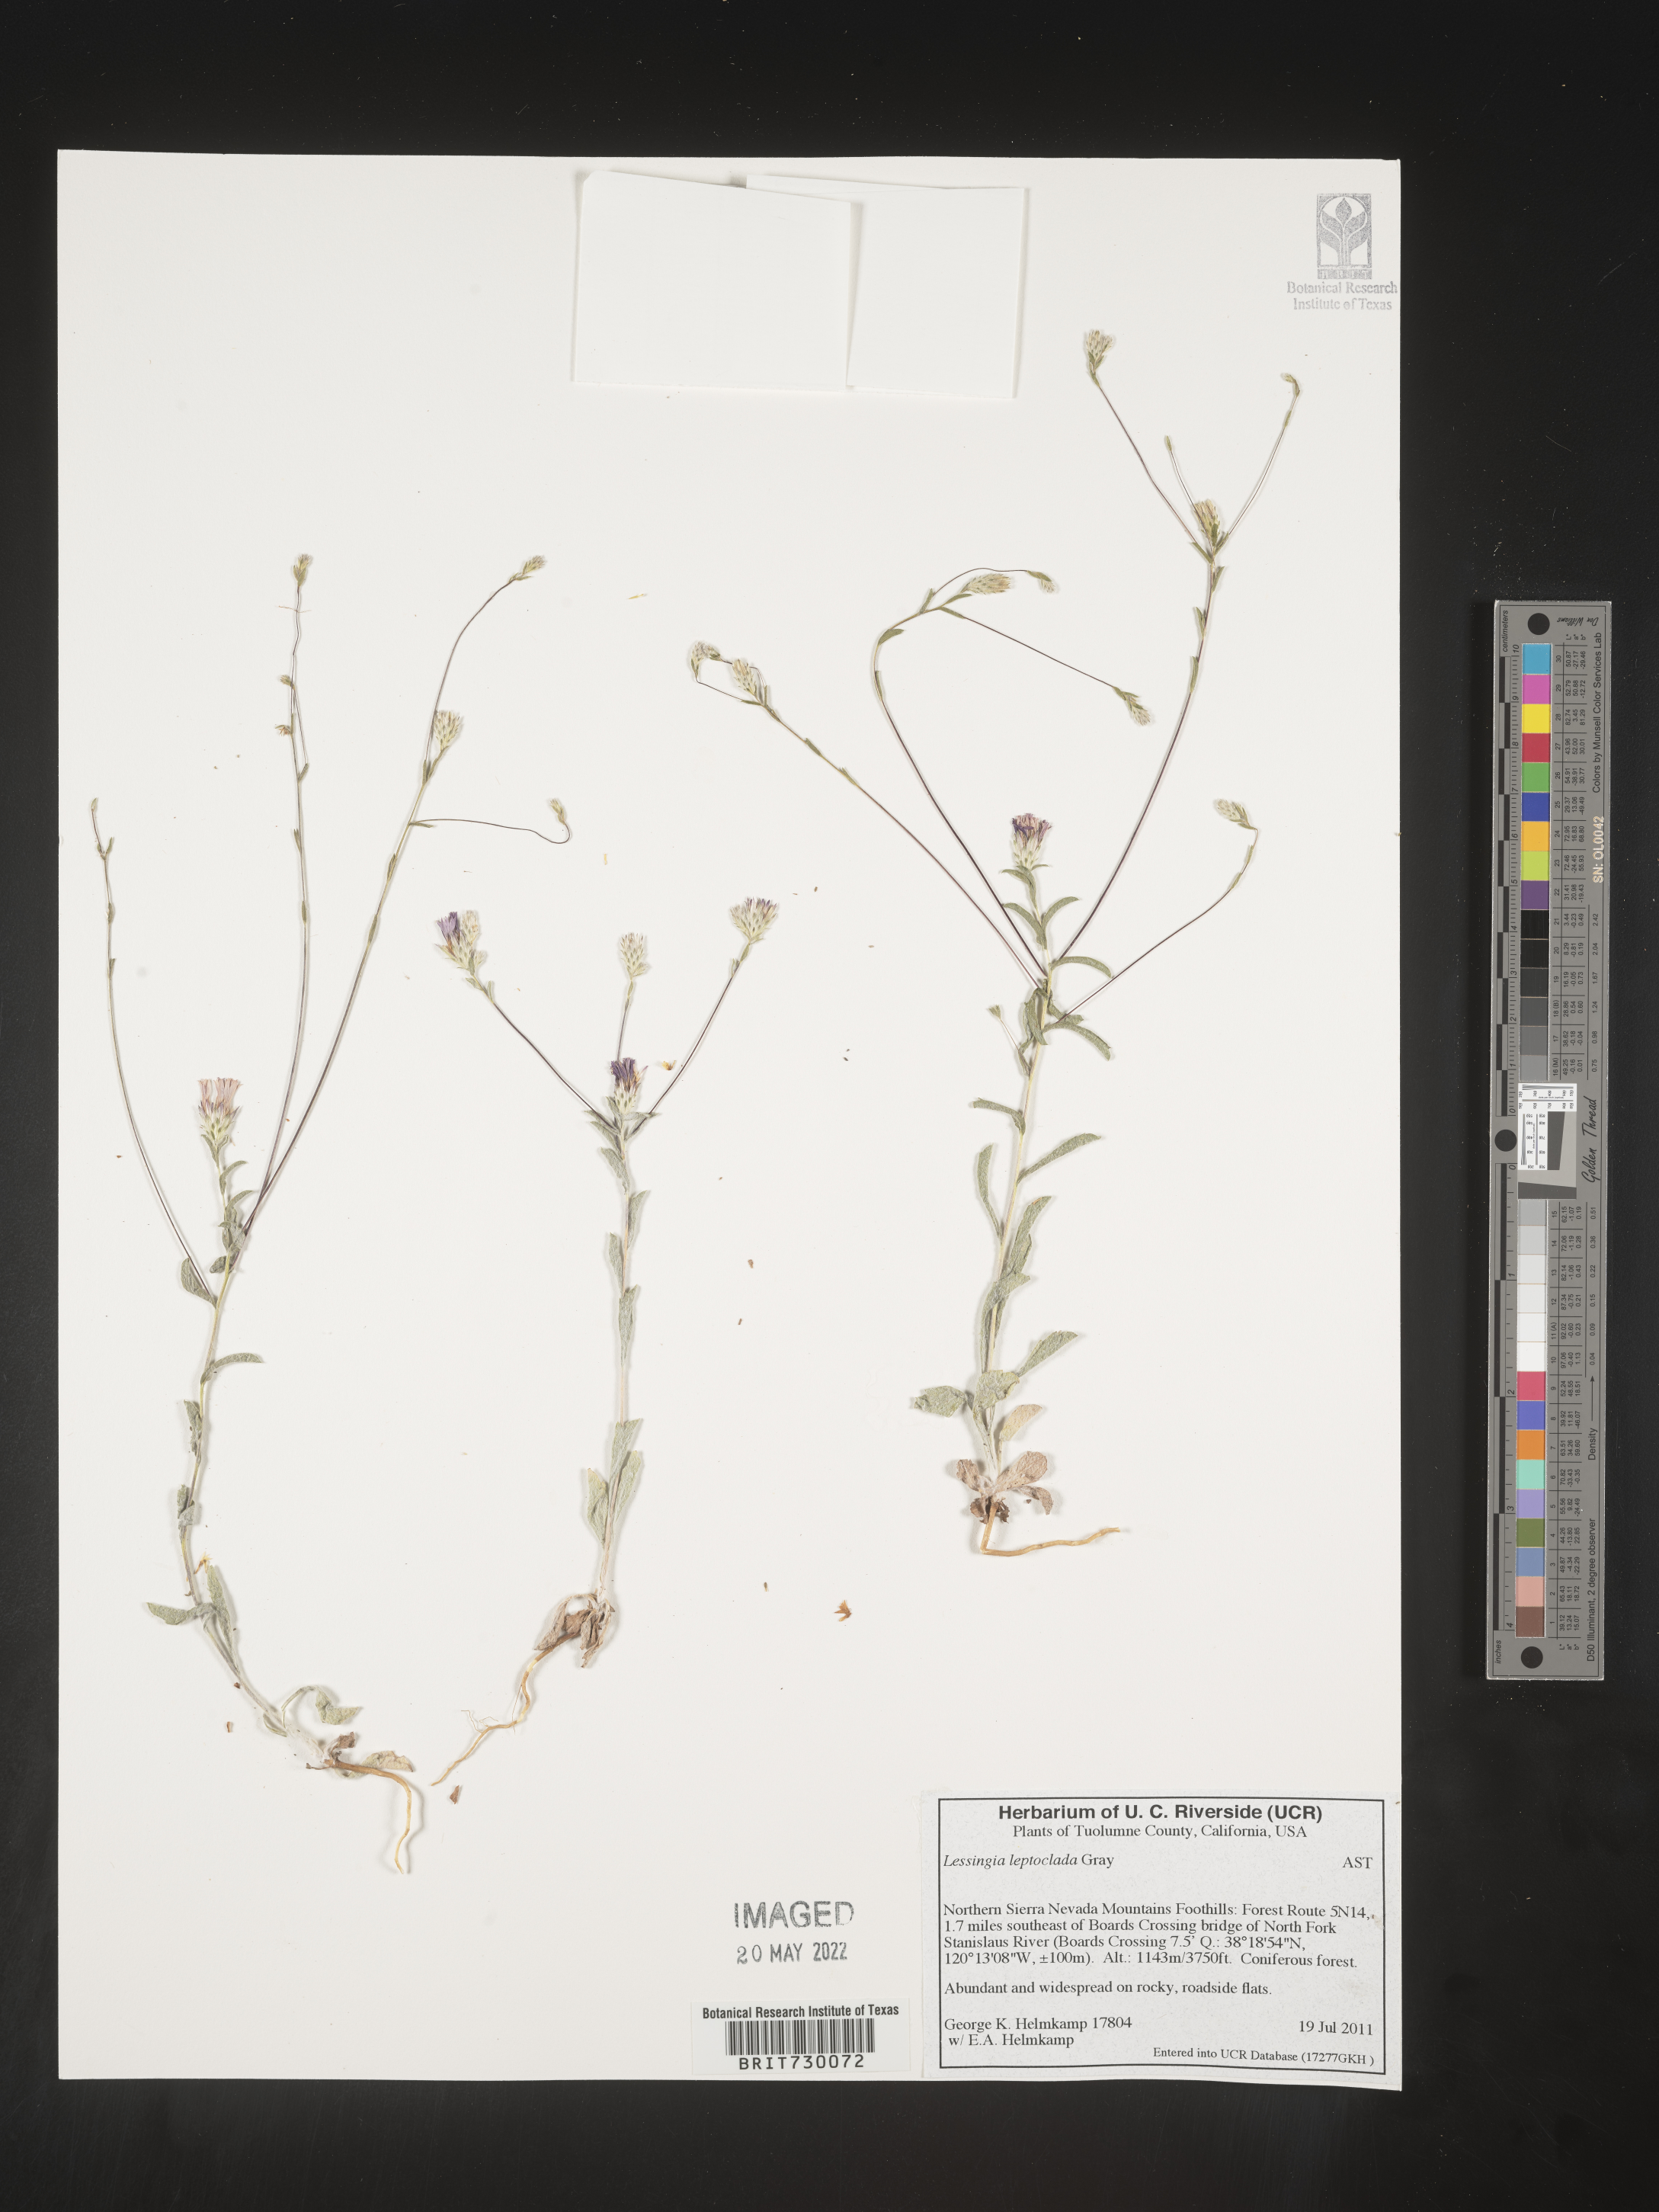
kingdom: Plantae
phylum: Tracheophyta
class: Magnoliopsida
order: Asterales
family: Asteraceae
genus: Lessingia
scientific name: Lessingia
